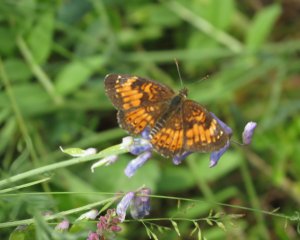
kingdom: Animalia
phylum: Arthropoda
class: Insecta
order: Lepidoptera
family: Nymphalidae
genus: Chlosyne
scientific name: Chlosyne harrisii
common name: Harris's Checkerspot
